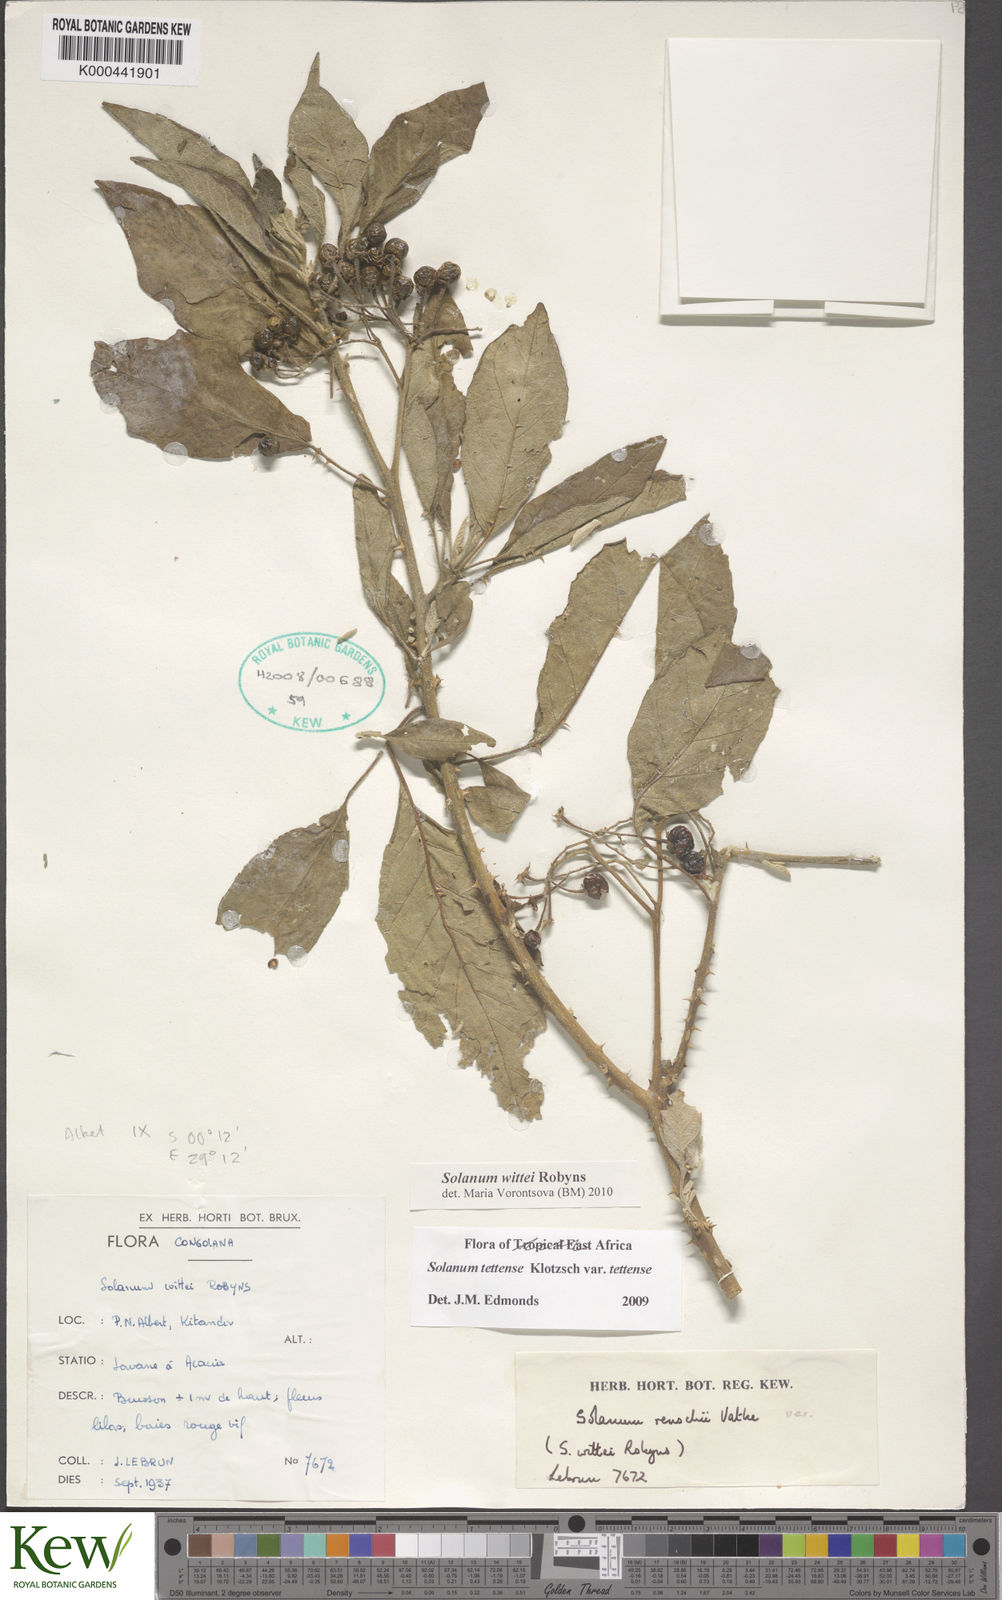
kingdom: Plantae
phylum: Tracheophyta
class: Magnoliopsida
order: Solanales
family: Solanaceae
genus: Solanum
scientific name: Solanum wittei
